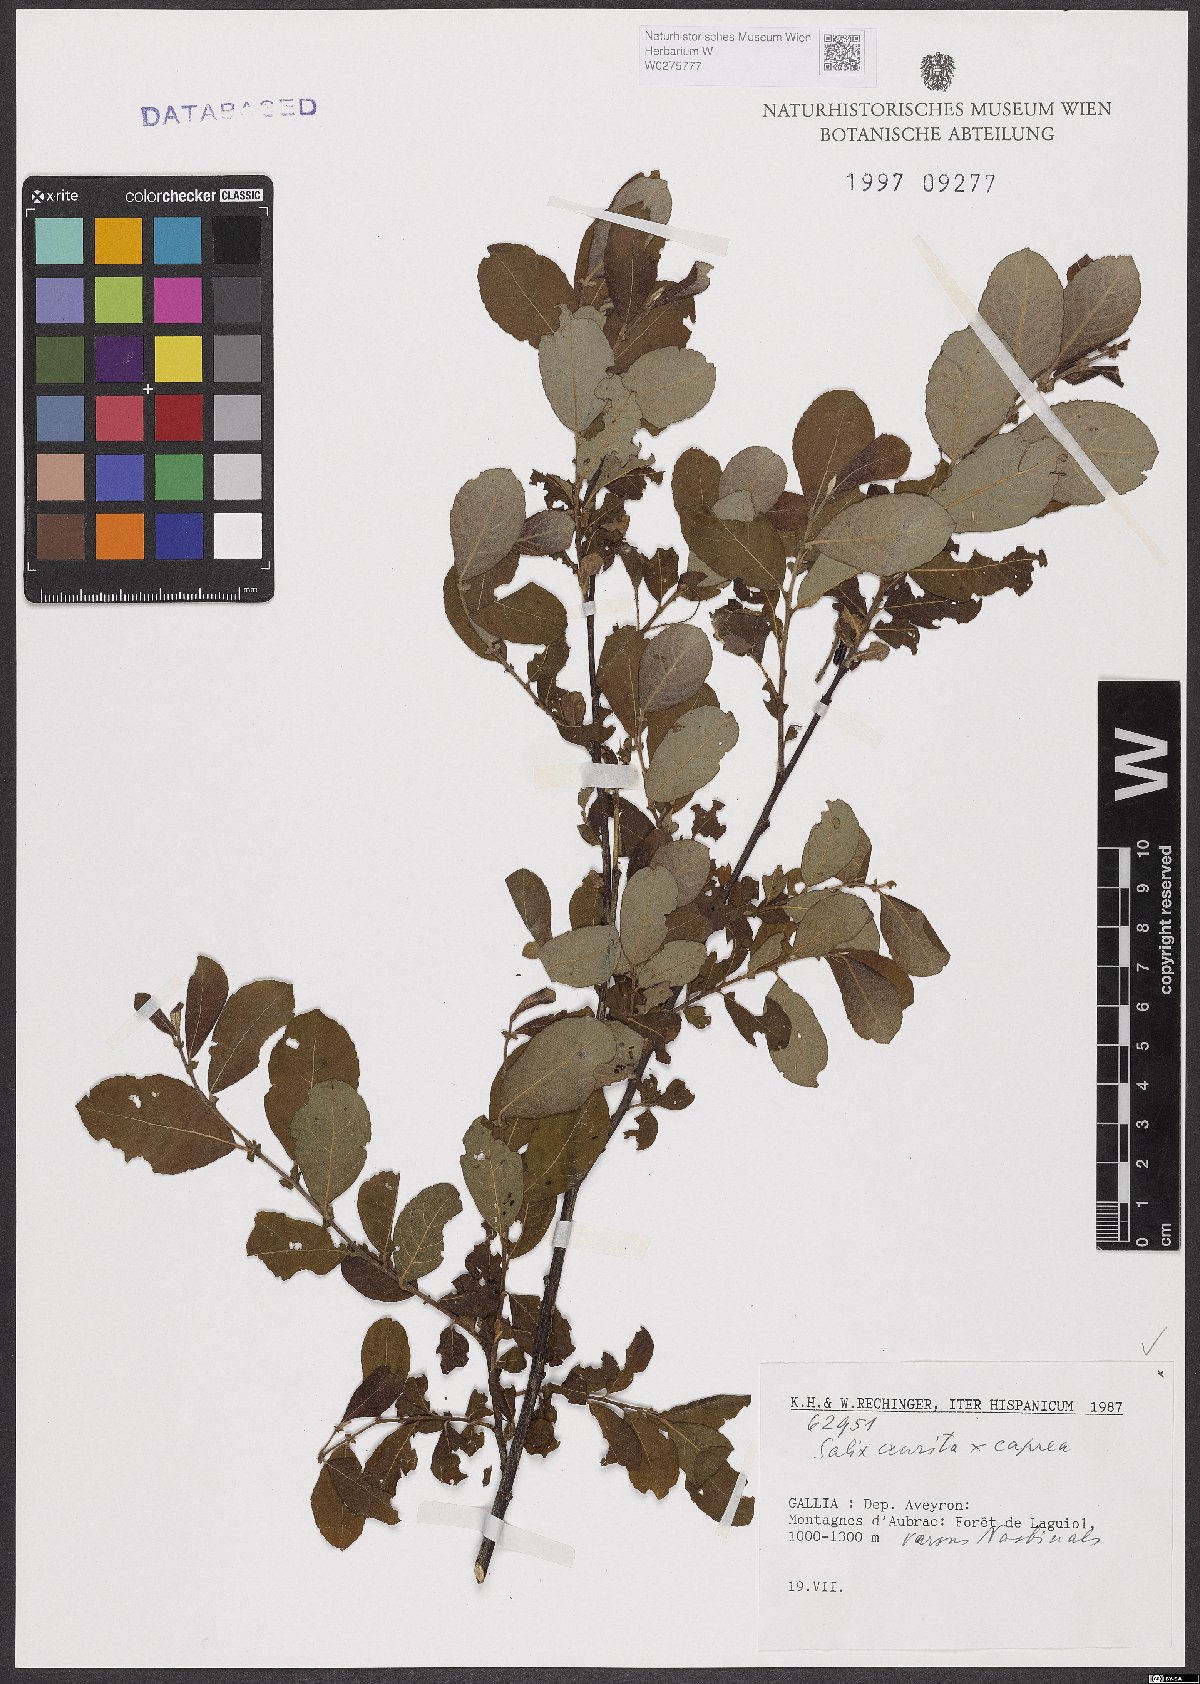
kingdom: Plantae
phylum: Tracheophyta
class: Magnoliopsida
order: Malpighiales
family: Salicaceae
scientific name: Salicaceae
